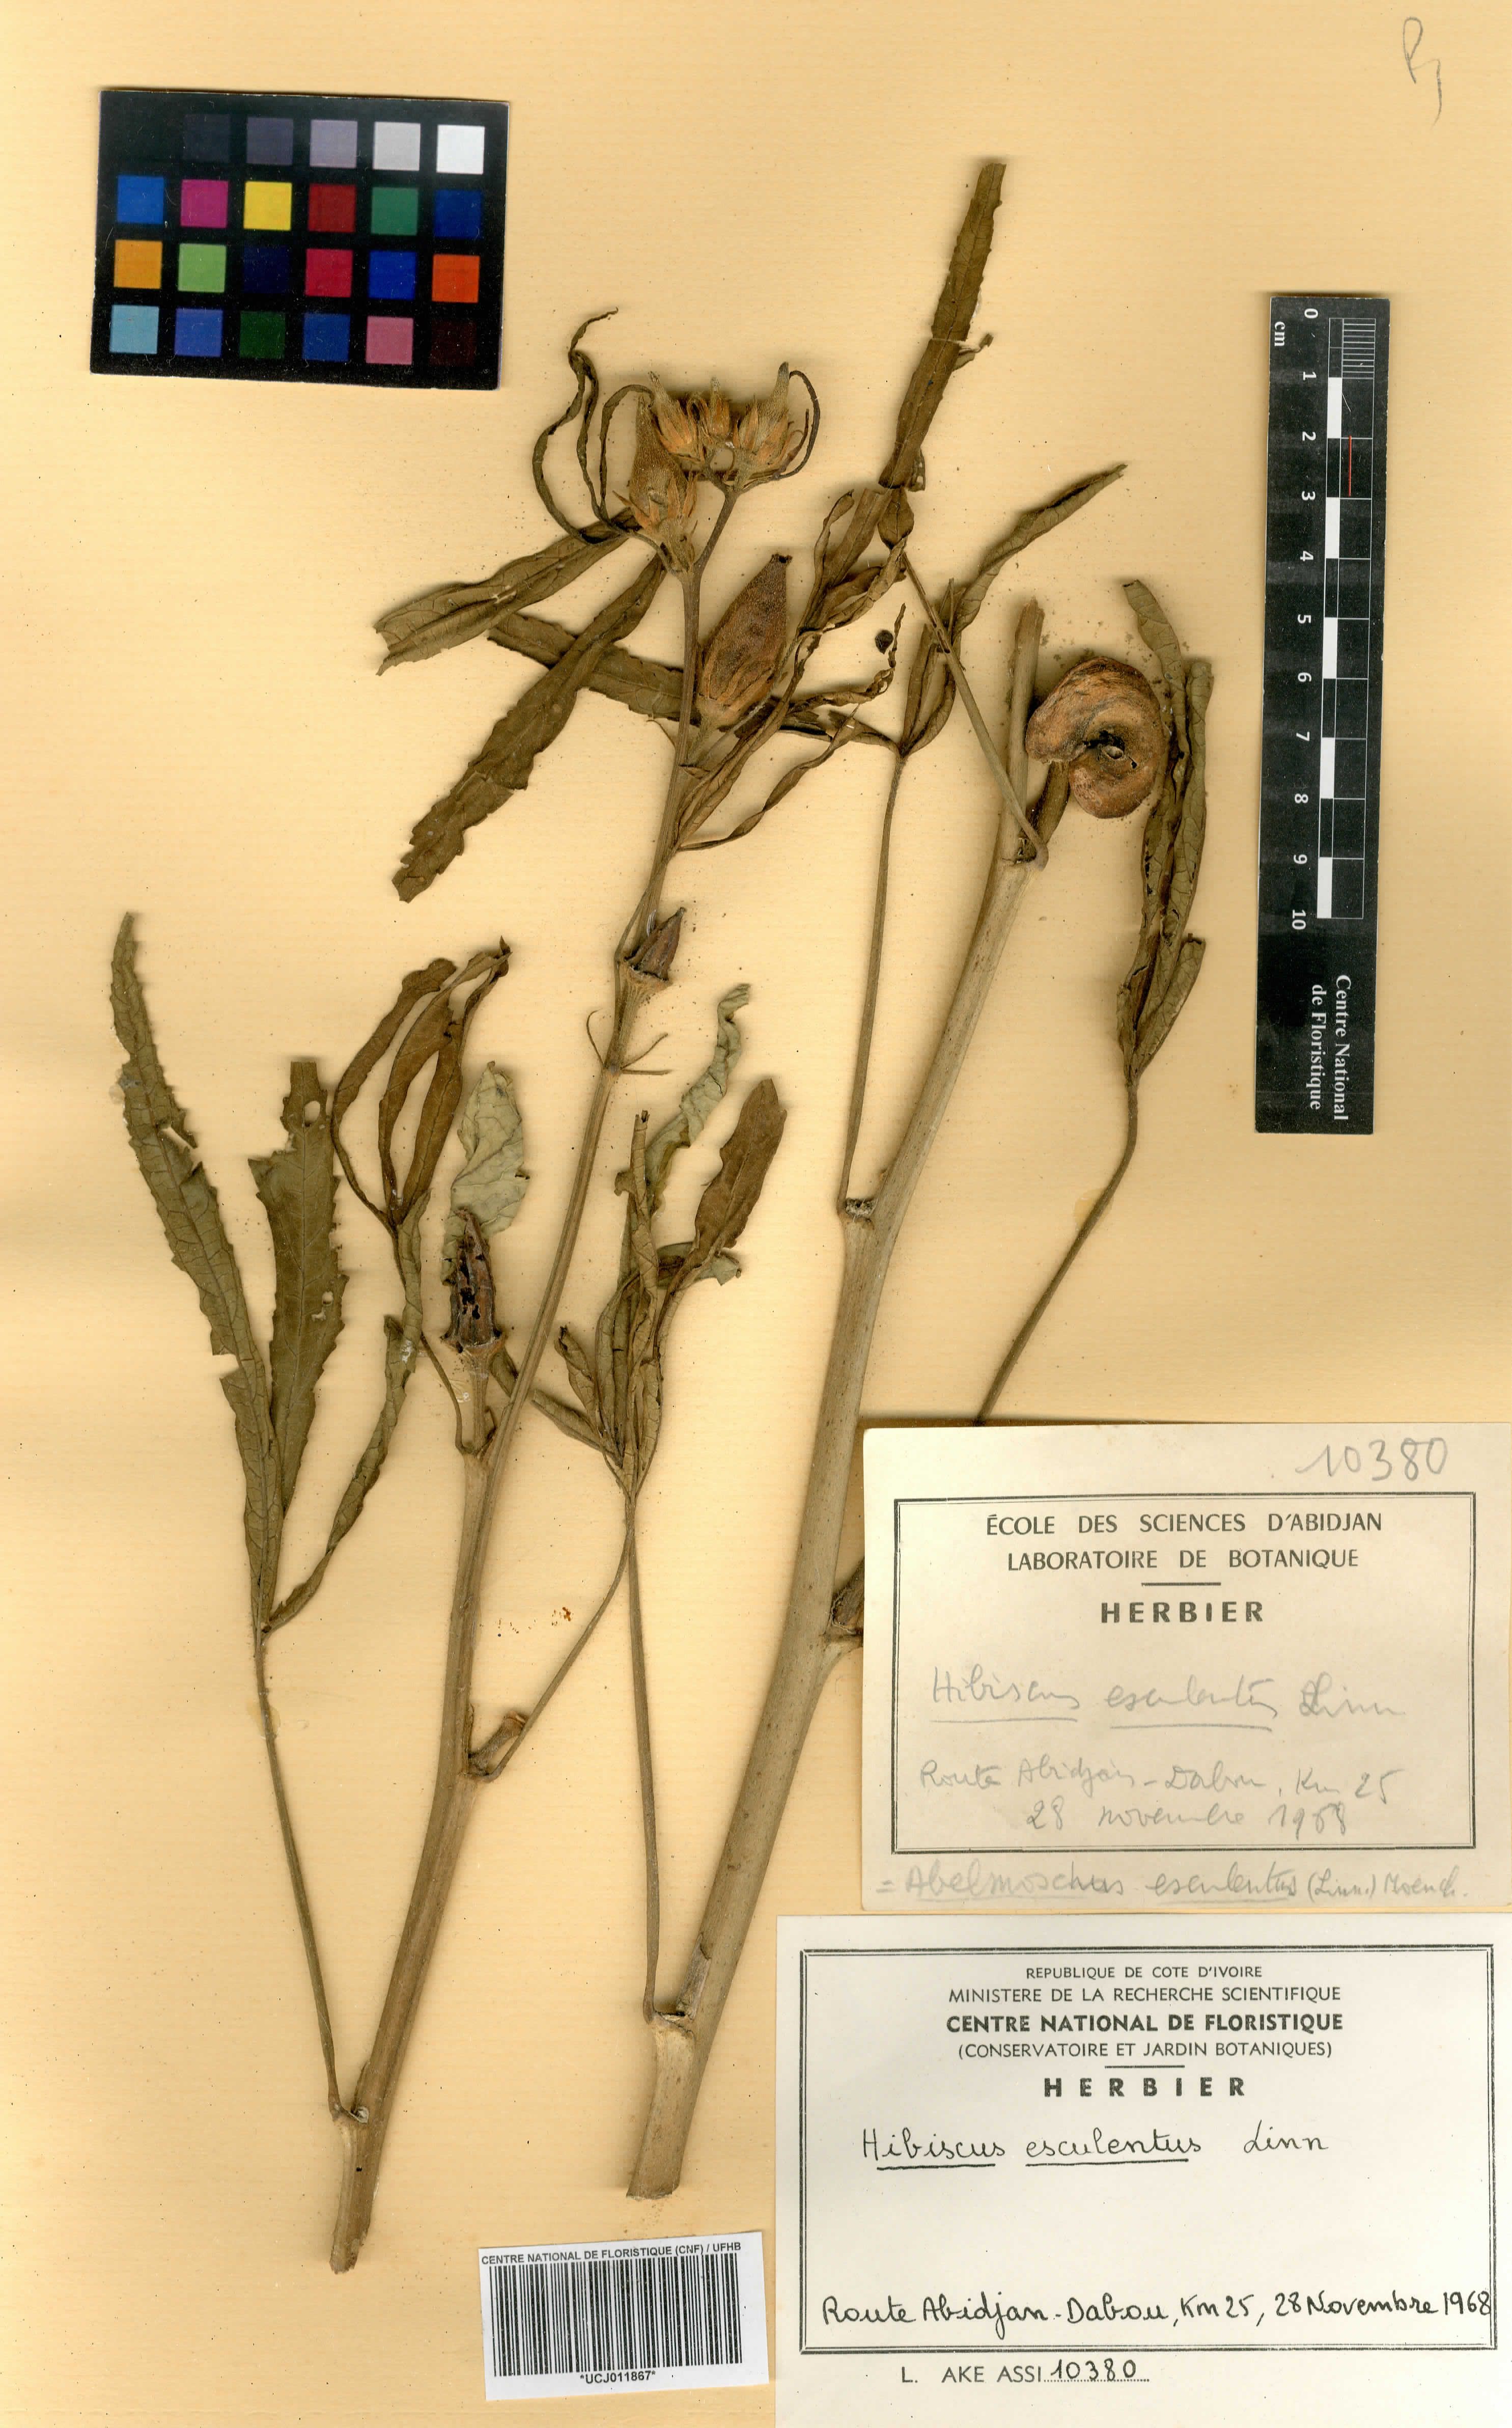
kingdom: Plantae
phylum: Tracheophyta
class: Magnoliopsida
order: Malvales
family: Malvaceae
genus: Abelmoschus
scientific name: Abelmoschus esculentus
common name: Okra
